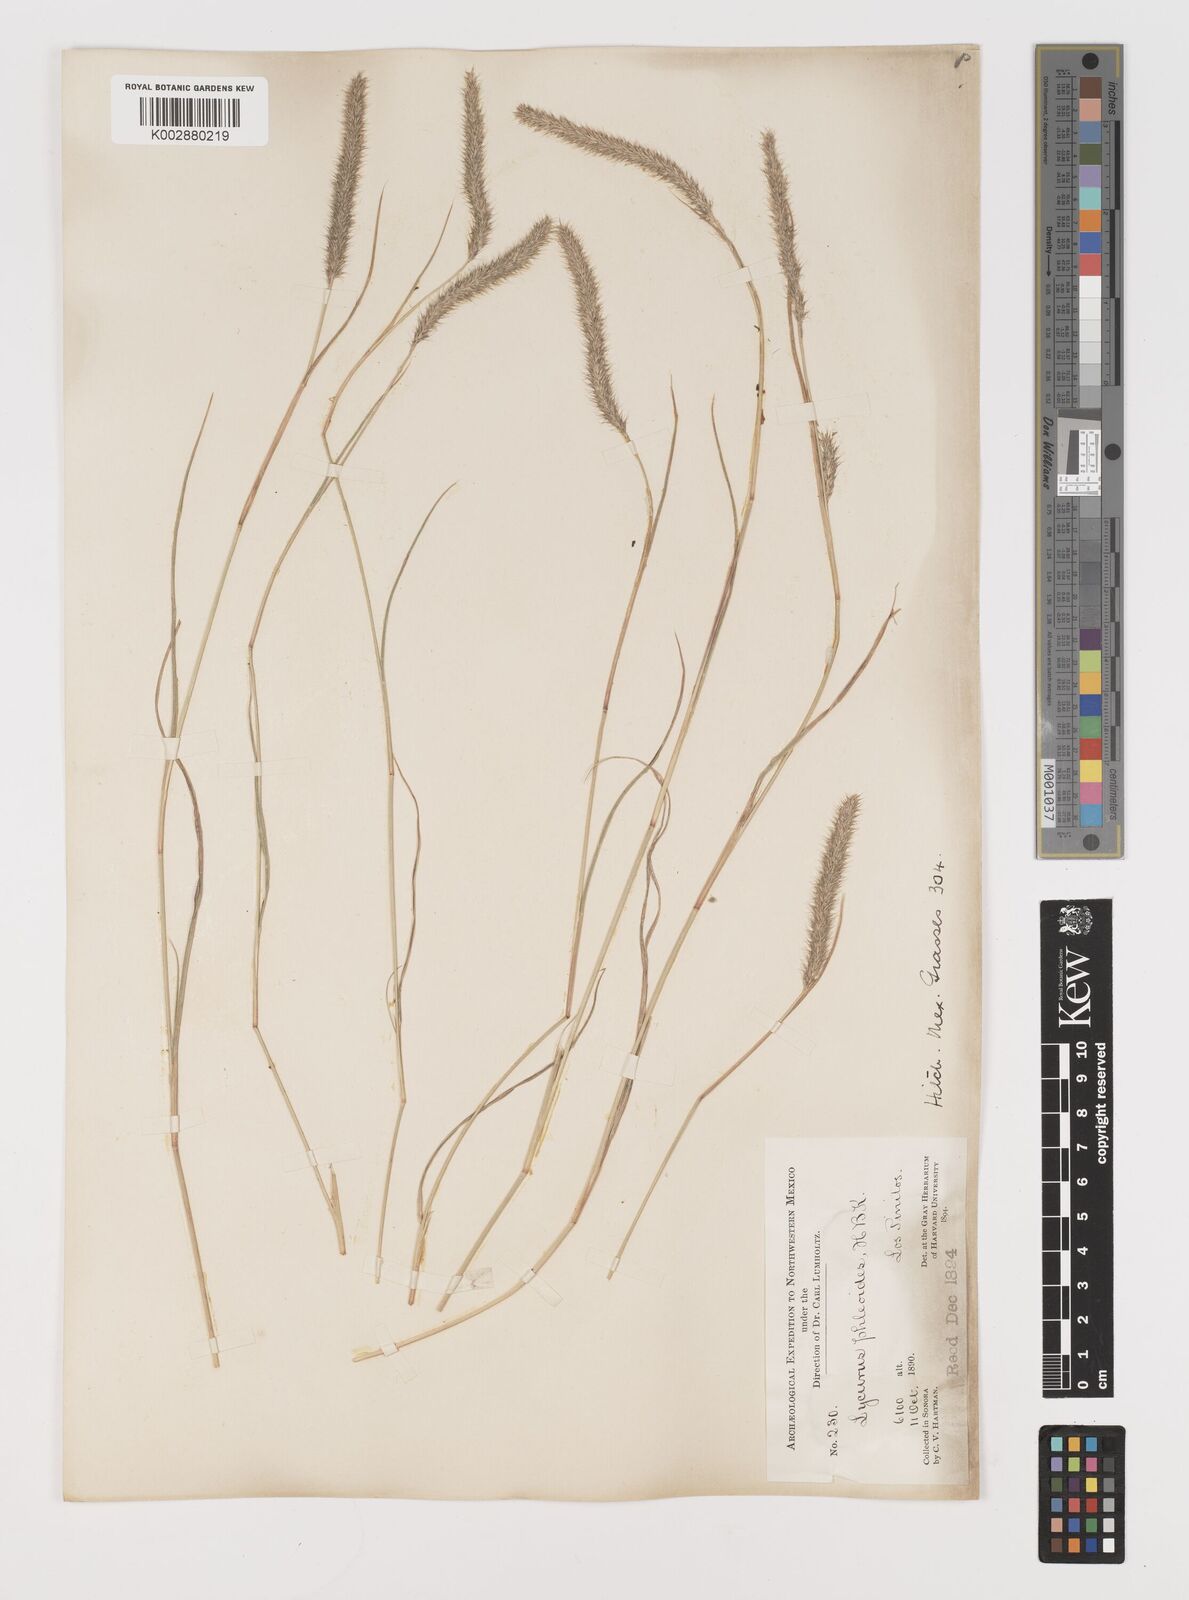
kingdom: Plantae
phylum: Tracheophyta
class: Liliopsida
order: Poales
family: Poaceae
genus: Muhlenbergia
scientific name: Muhlenbergia phleoides
